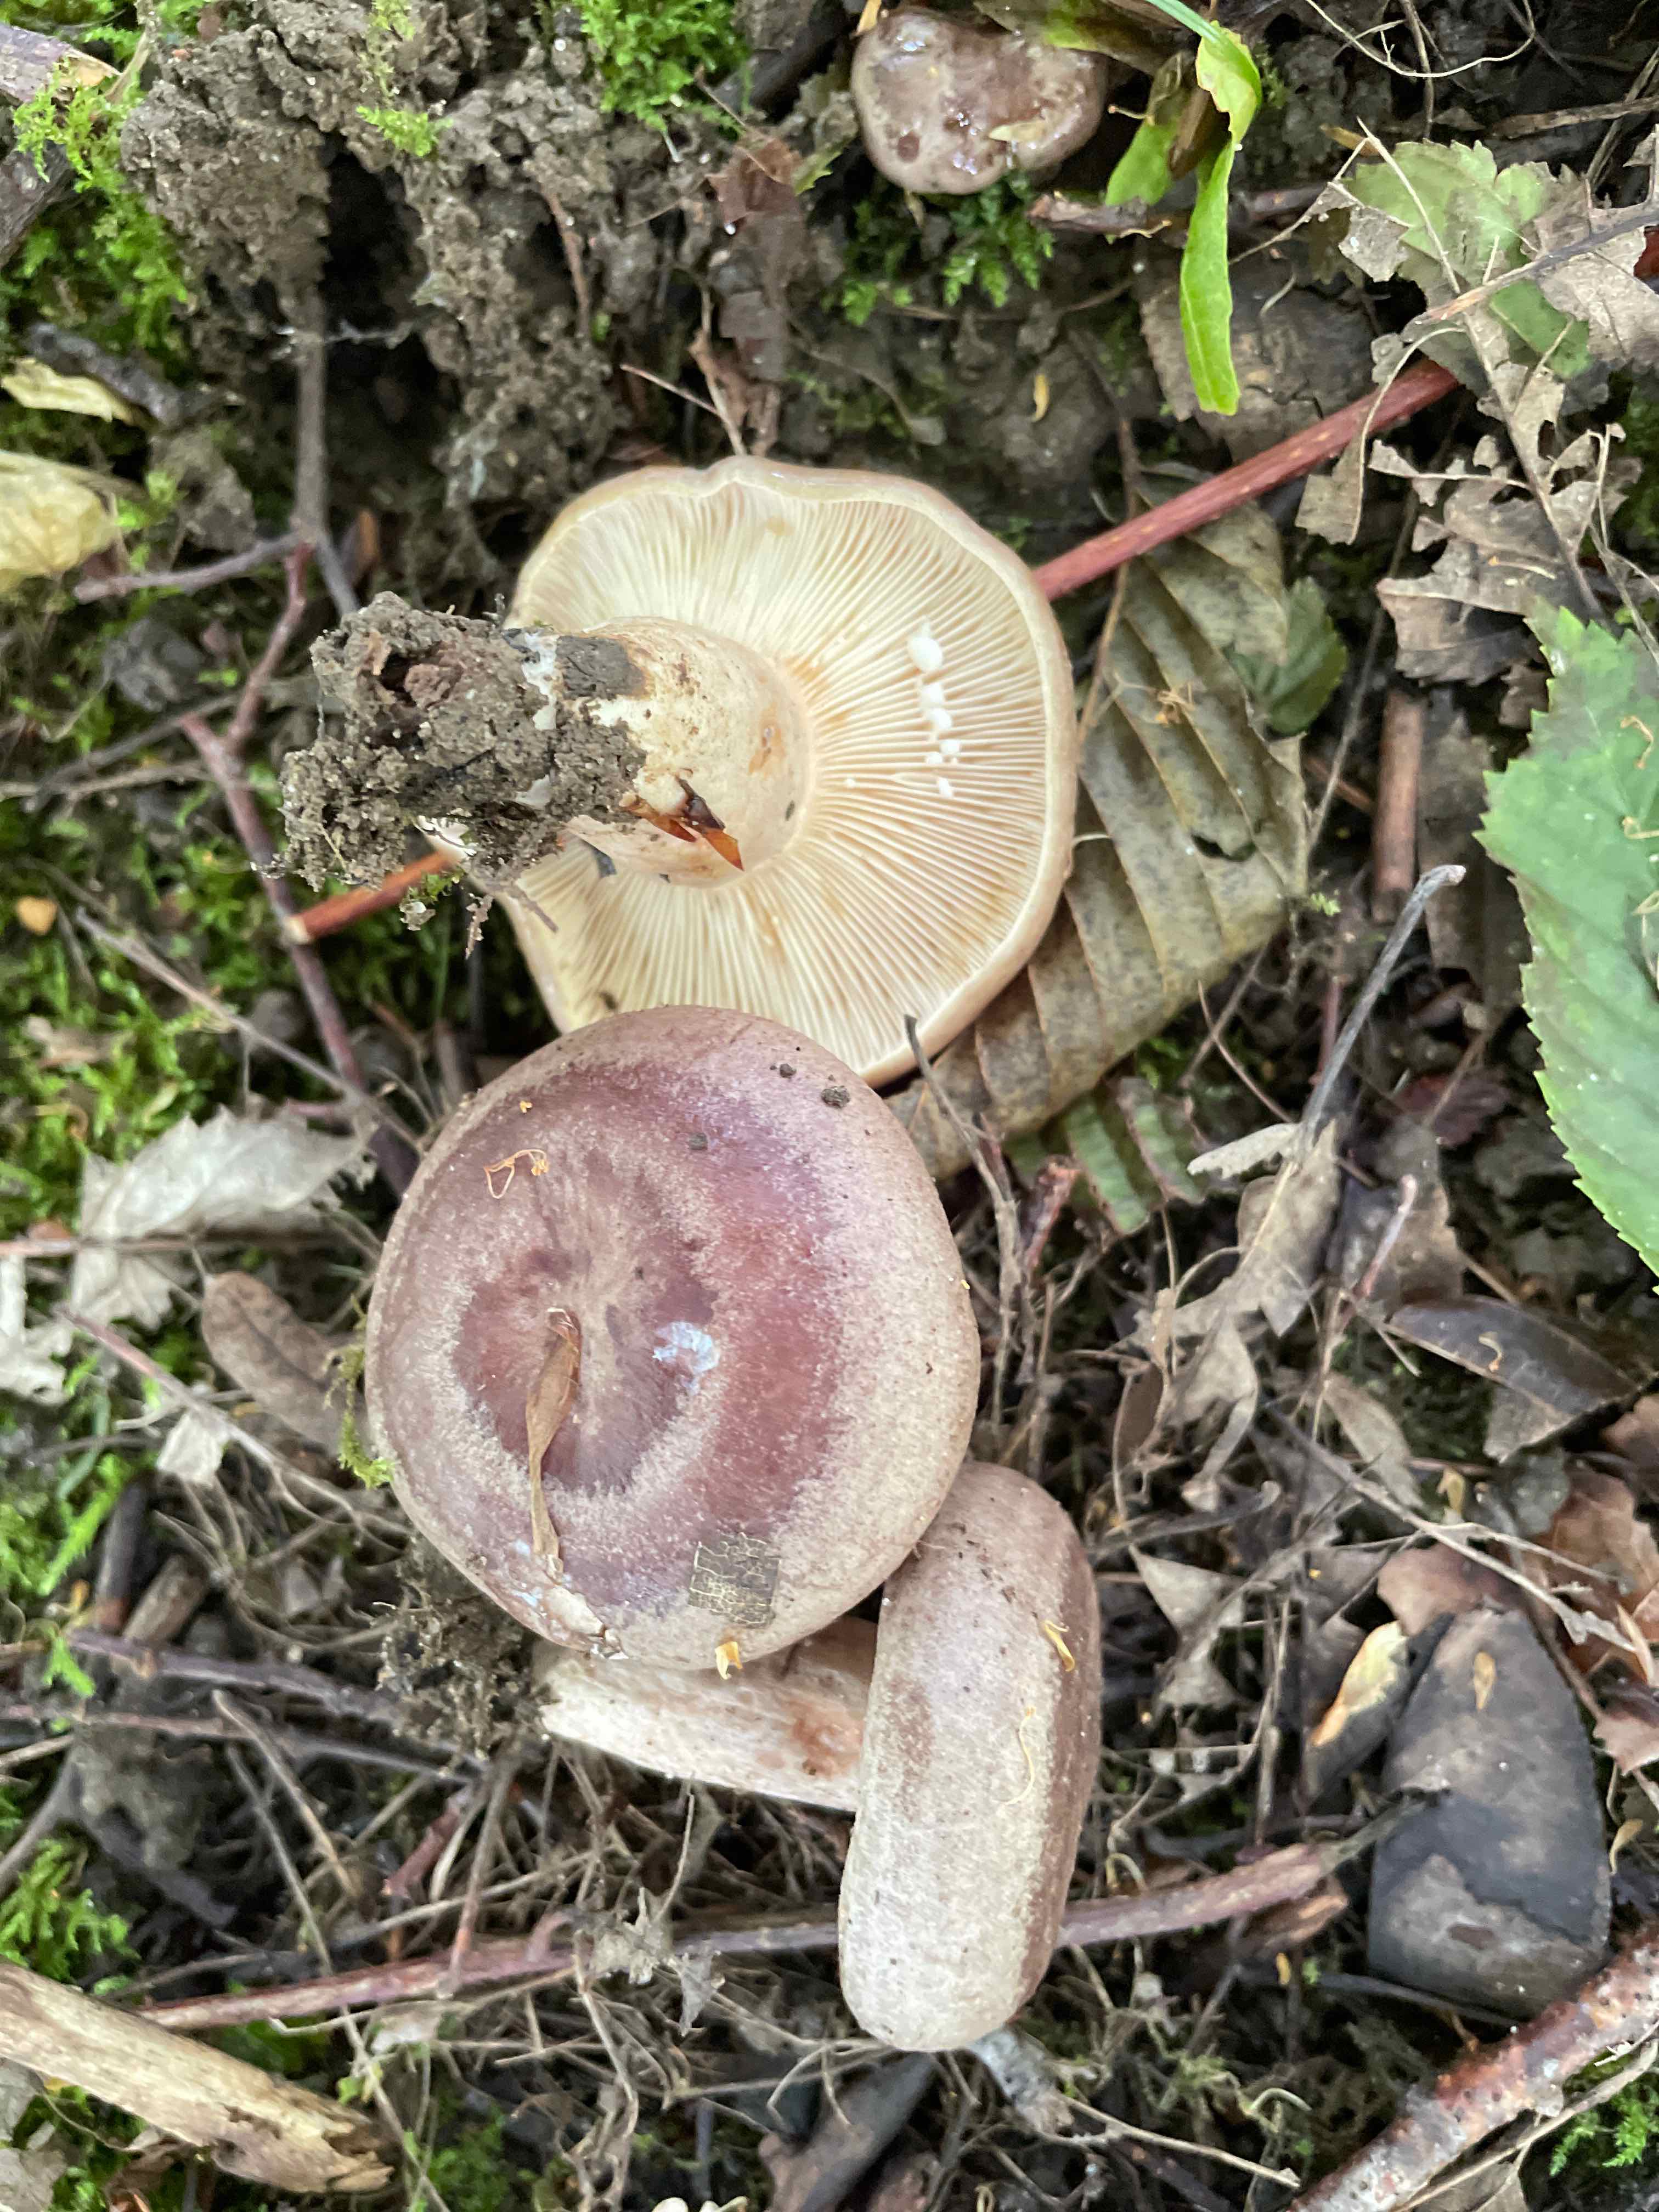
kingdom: Fungi
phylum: Basidiomycota
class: Agaricomycetes
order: Russulales
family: Russulaceae
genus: Lactarius
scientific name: Lactarius circellatus
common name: avnbøg-mælkehat
